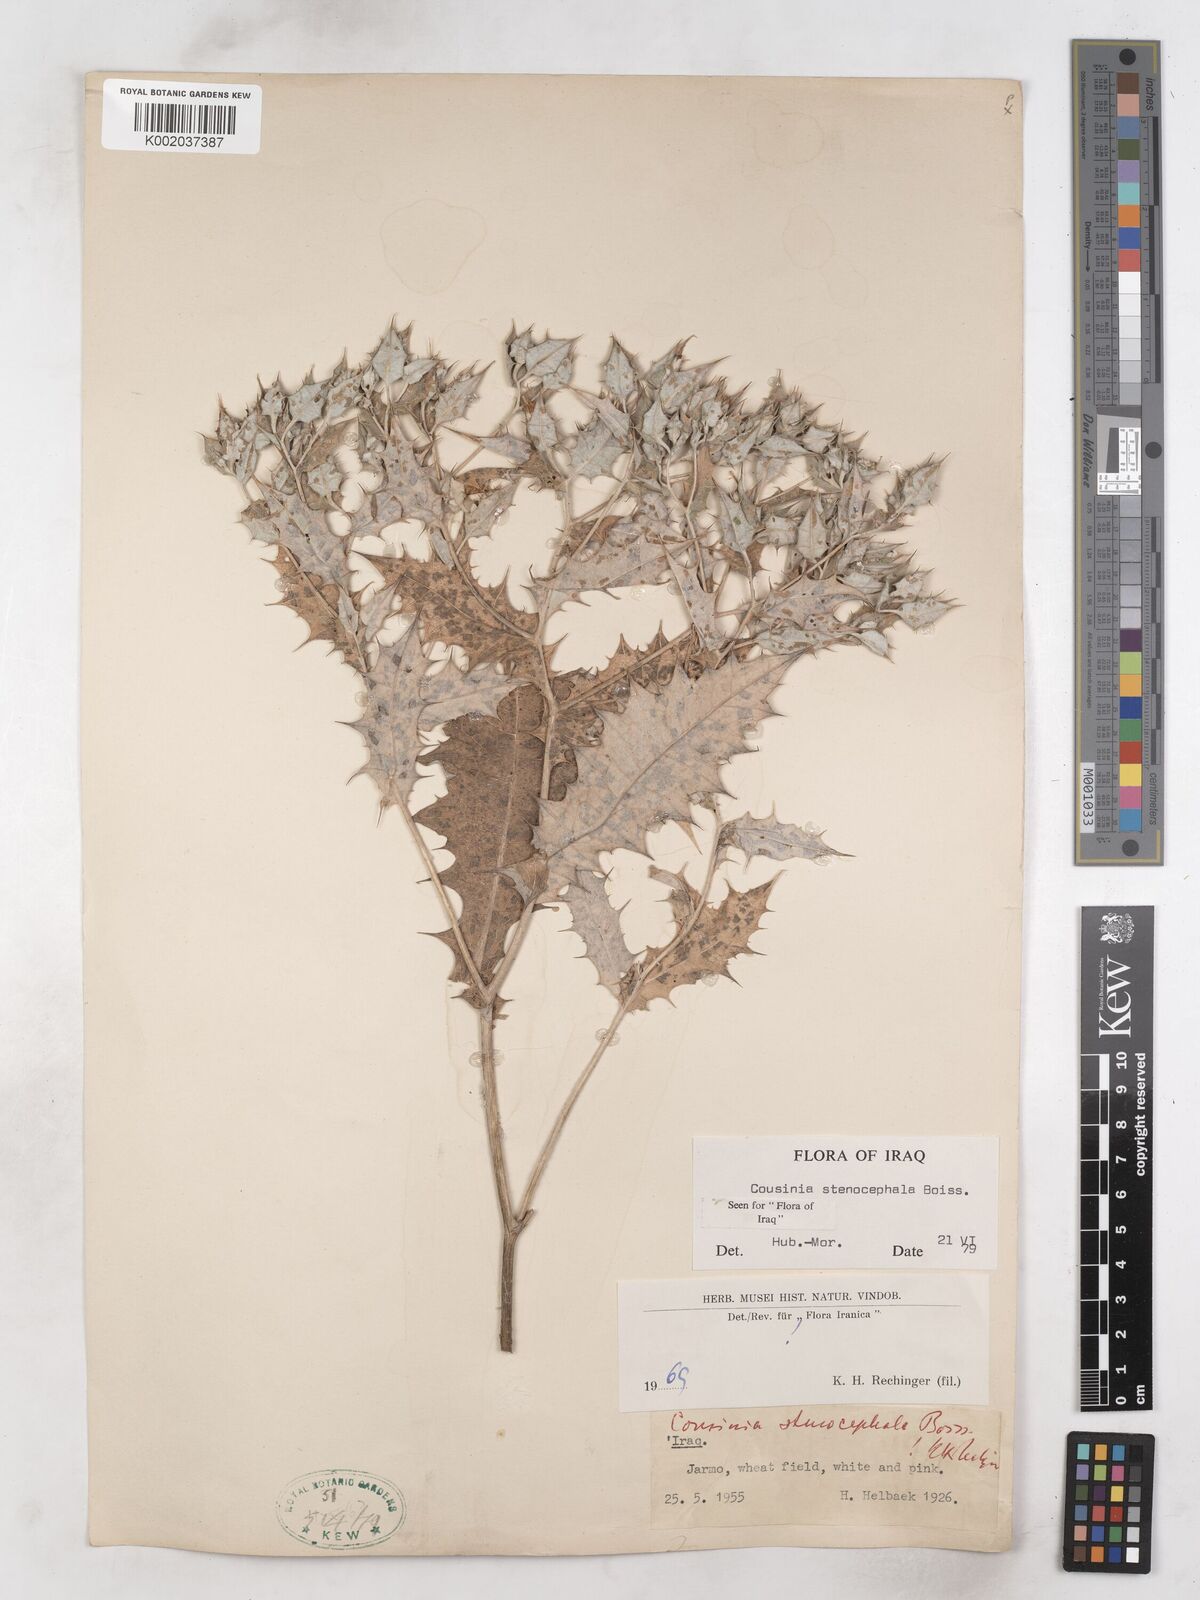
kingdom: Plantae
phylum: Tracheophyta
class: Magnoliopsida
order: Asterales
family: Asteraceae
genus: Cousinia
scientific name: Cousinia stenocephala
